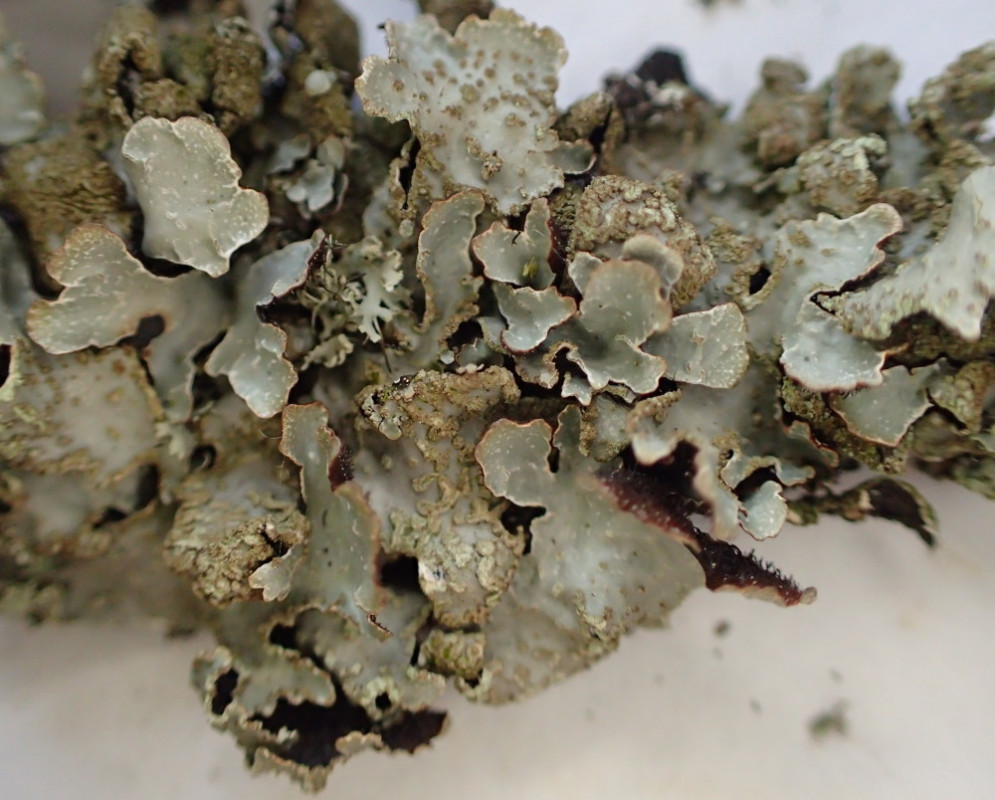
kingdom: Fungi
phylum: Ascomycota
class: Lecanoromycetes
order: Lecanorales
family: Parmeliaceae
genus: Parmelia
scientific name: Parmelia sulcata
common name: rynket skållav
